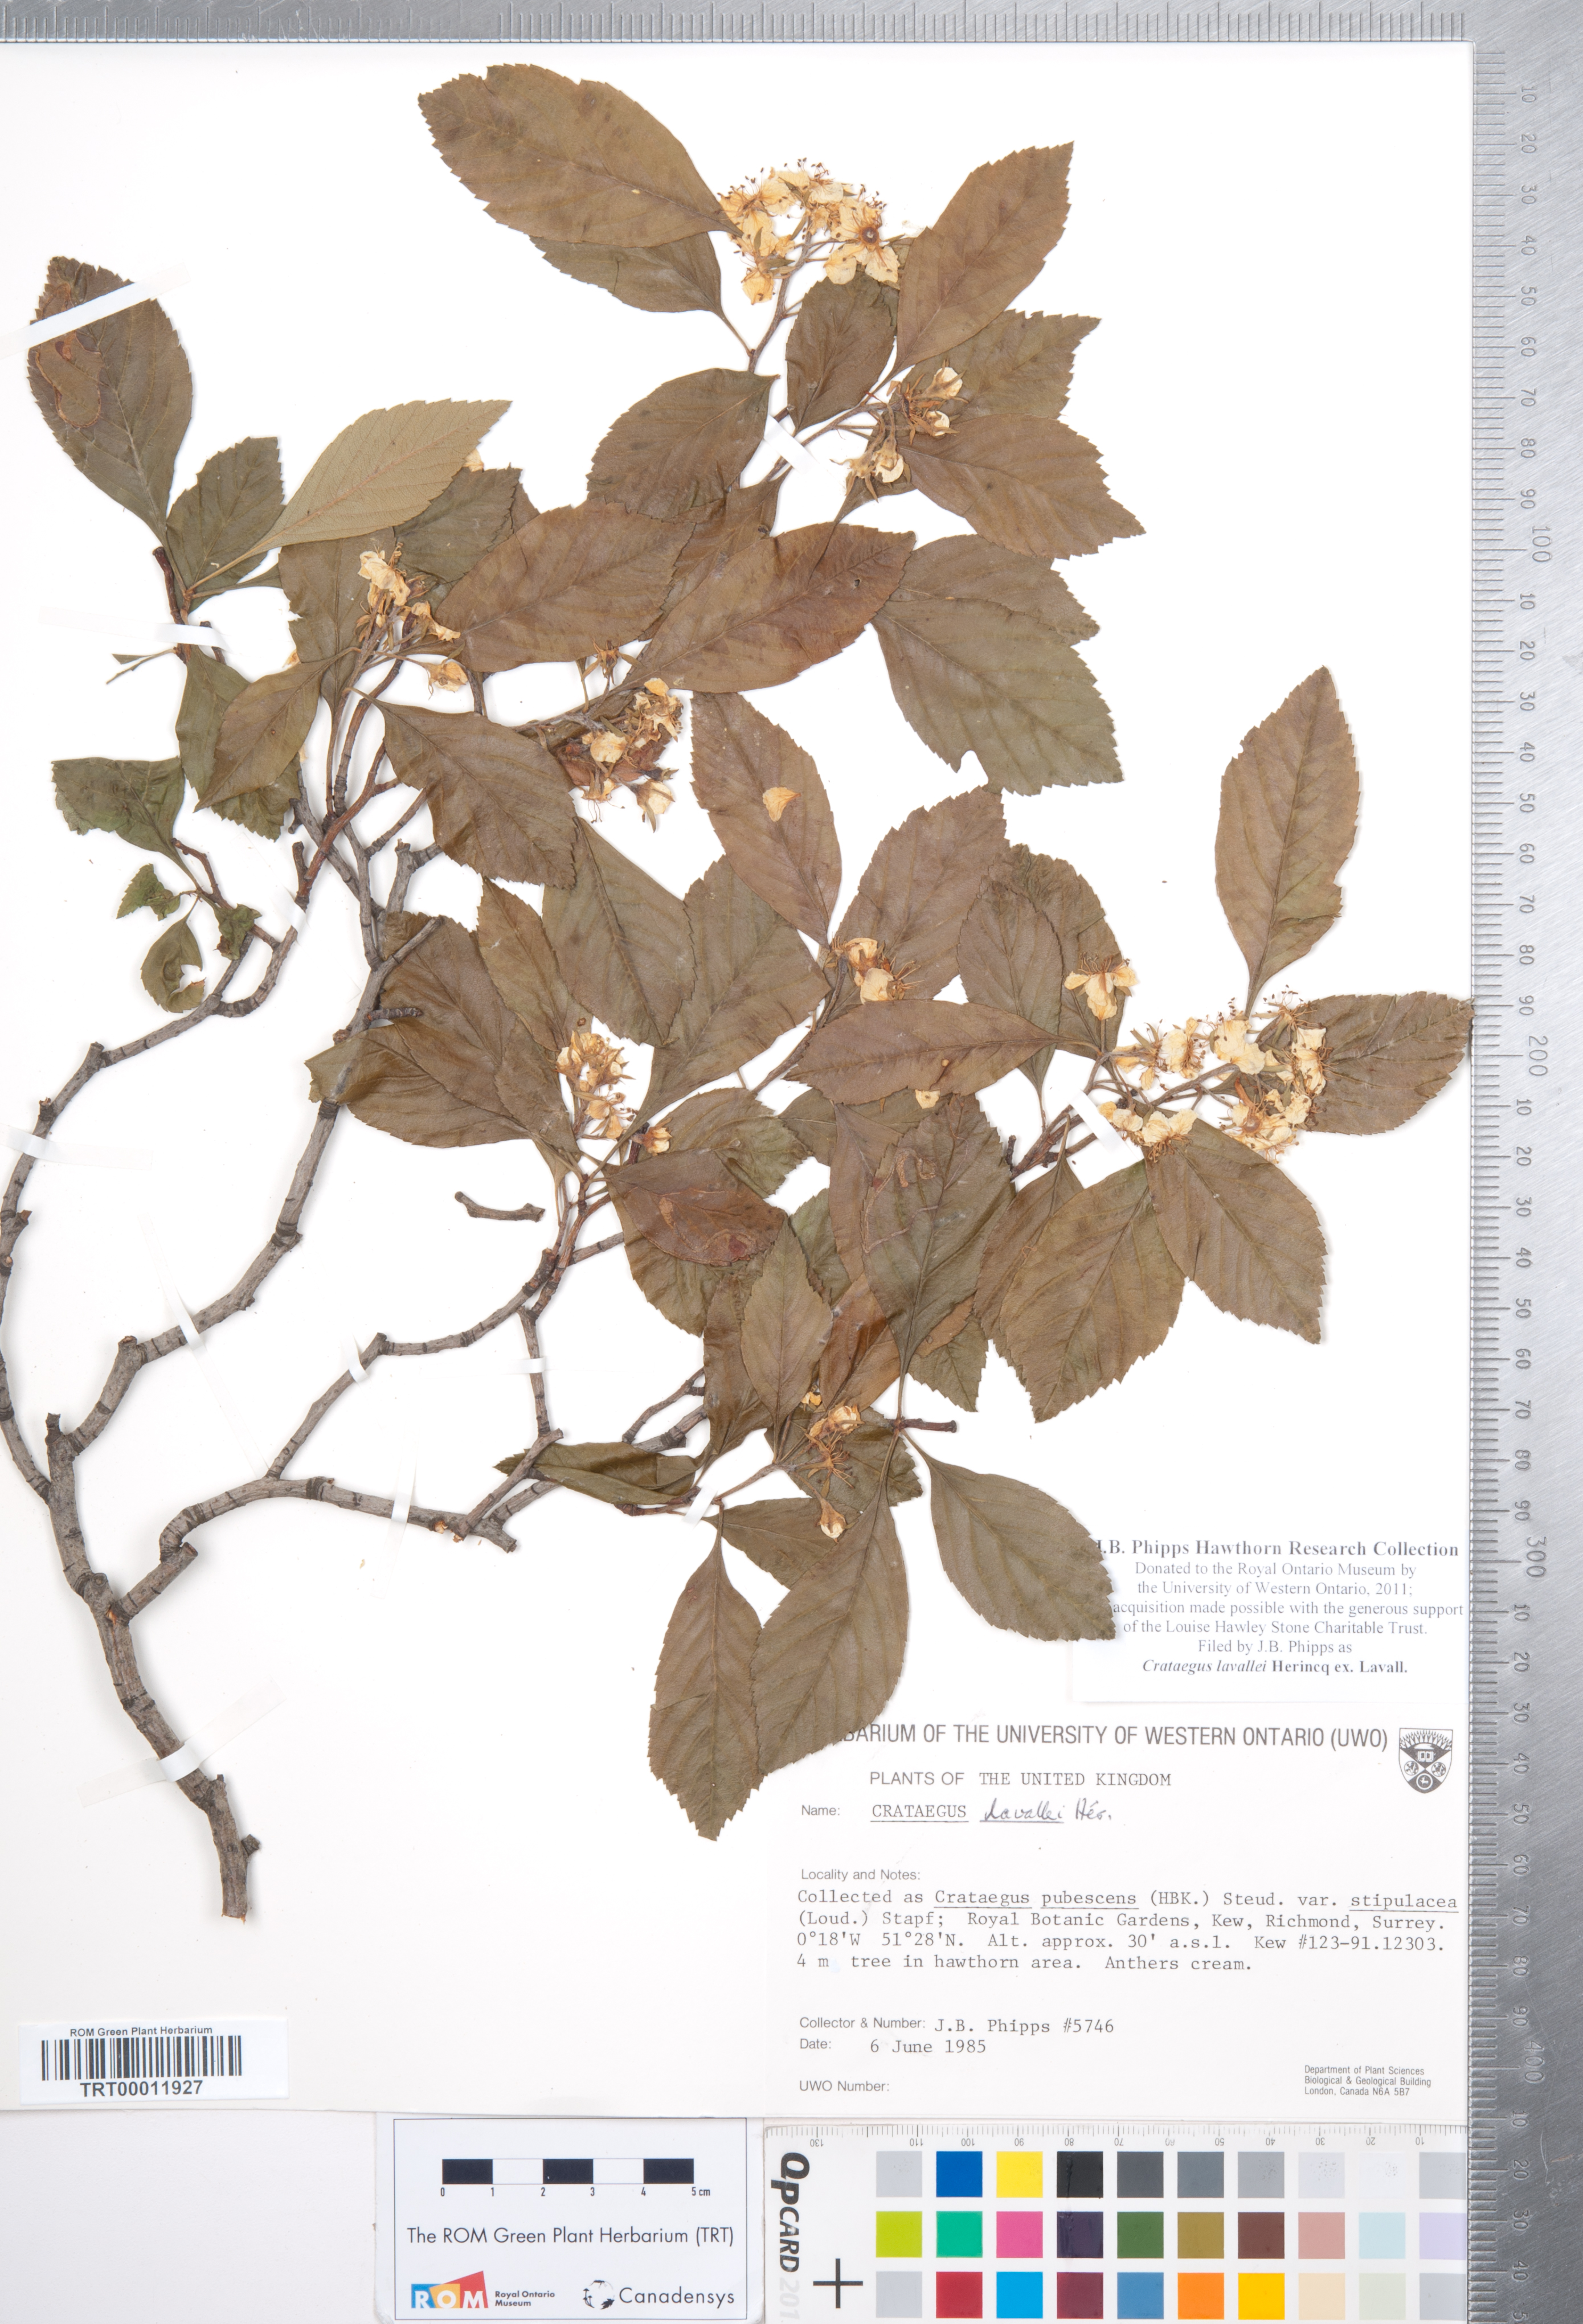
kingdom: Plantae
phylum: Tracheophyta
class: Magnoliopsida
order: Rosales
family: Rosaceae
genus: Crataegus
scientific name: Crataegus lavallei
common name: Lavell hawthorn
